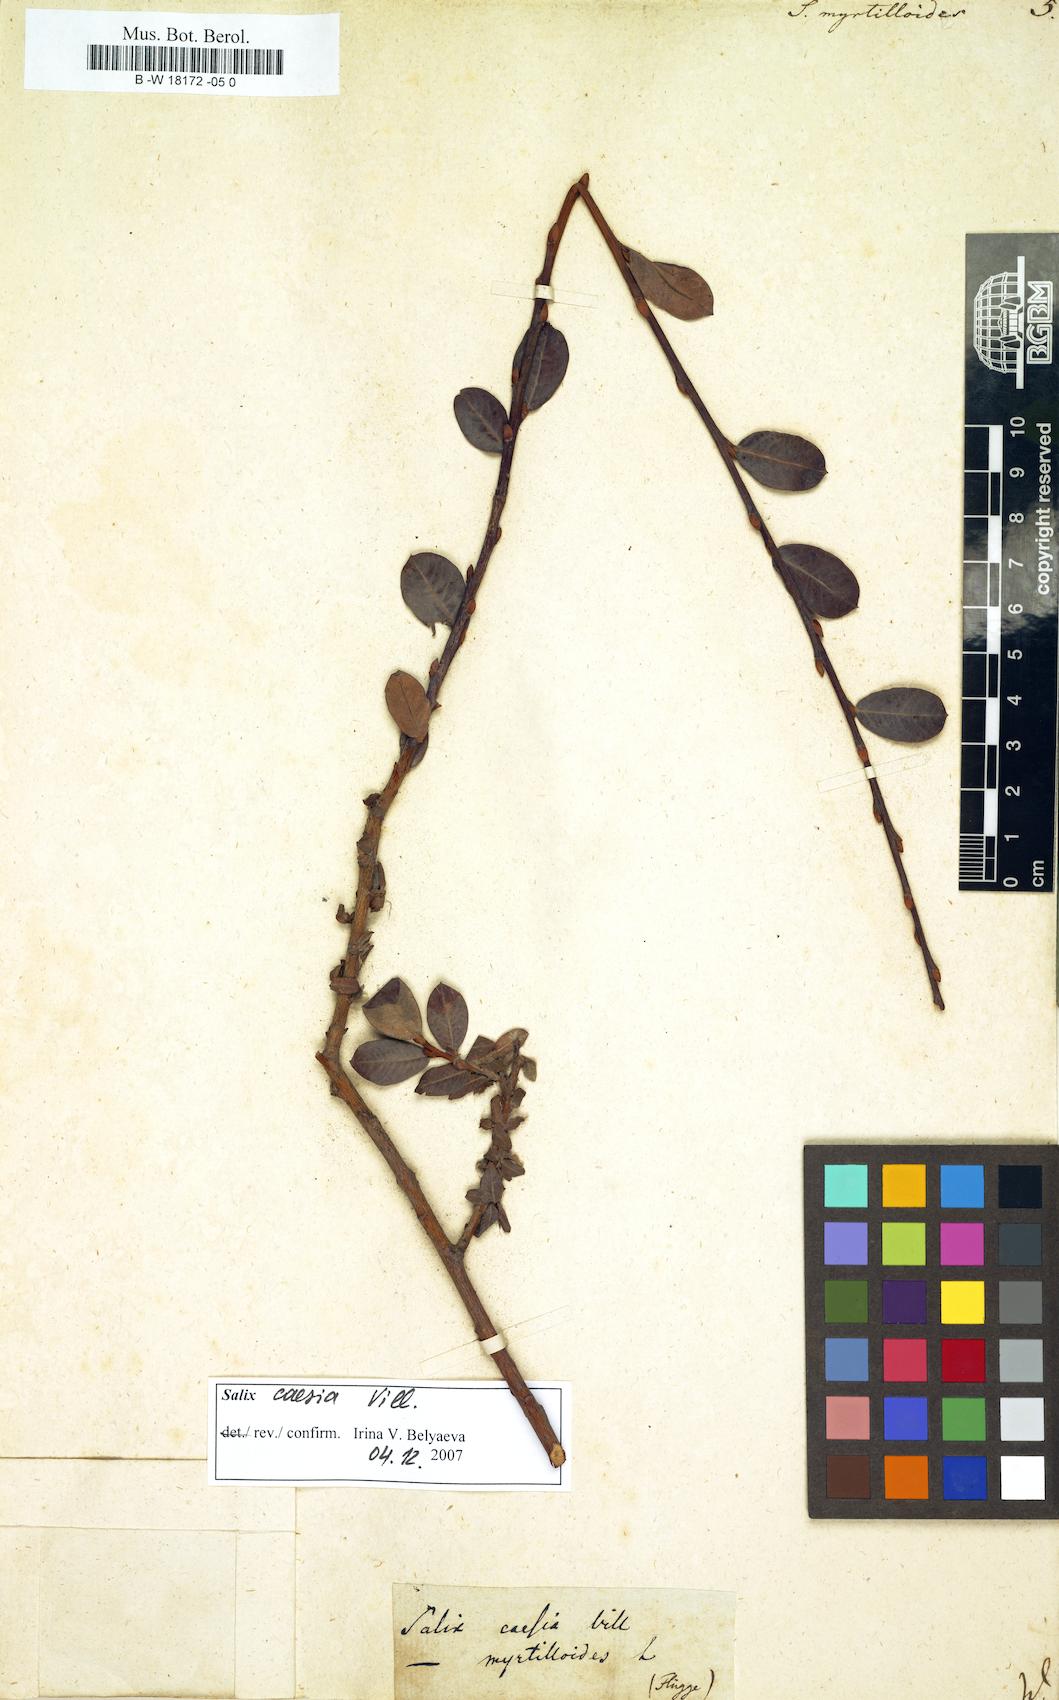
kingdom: Plantae
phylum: Tracheophyta
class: Magnoliopsida
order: Malpighiales
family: Salicaceae
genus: Salix
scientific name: Salix myrtilloides
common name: Myrtle-leaved willow
